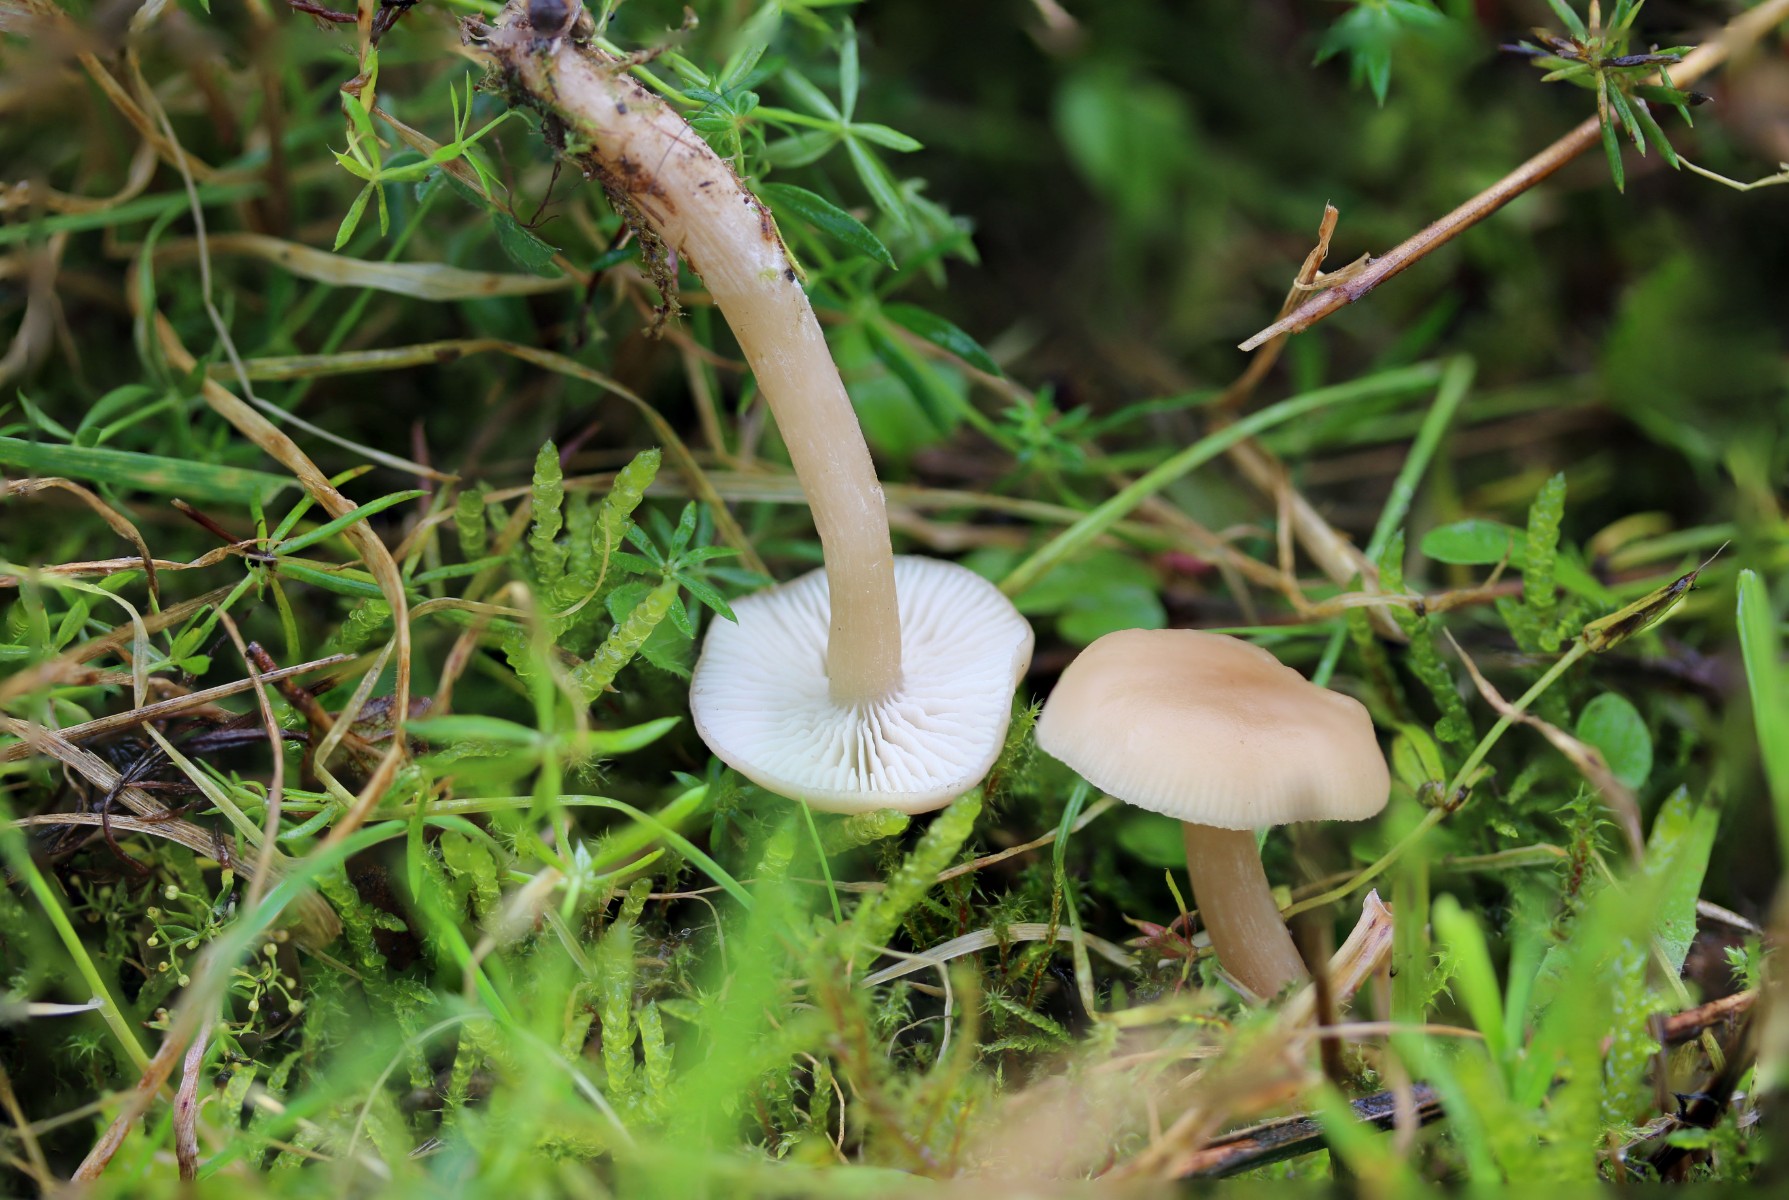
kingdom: Fungi
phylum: Basidiomycota
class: Agaricomycetes
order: Agaricales
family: Tricholomataceae
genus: Clitocybe
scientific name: Clitocybe fragrans
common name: vellugtende tragthat
